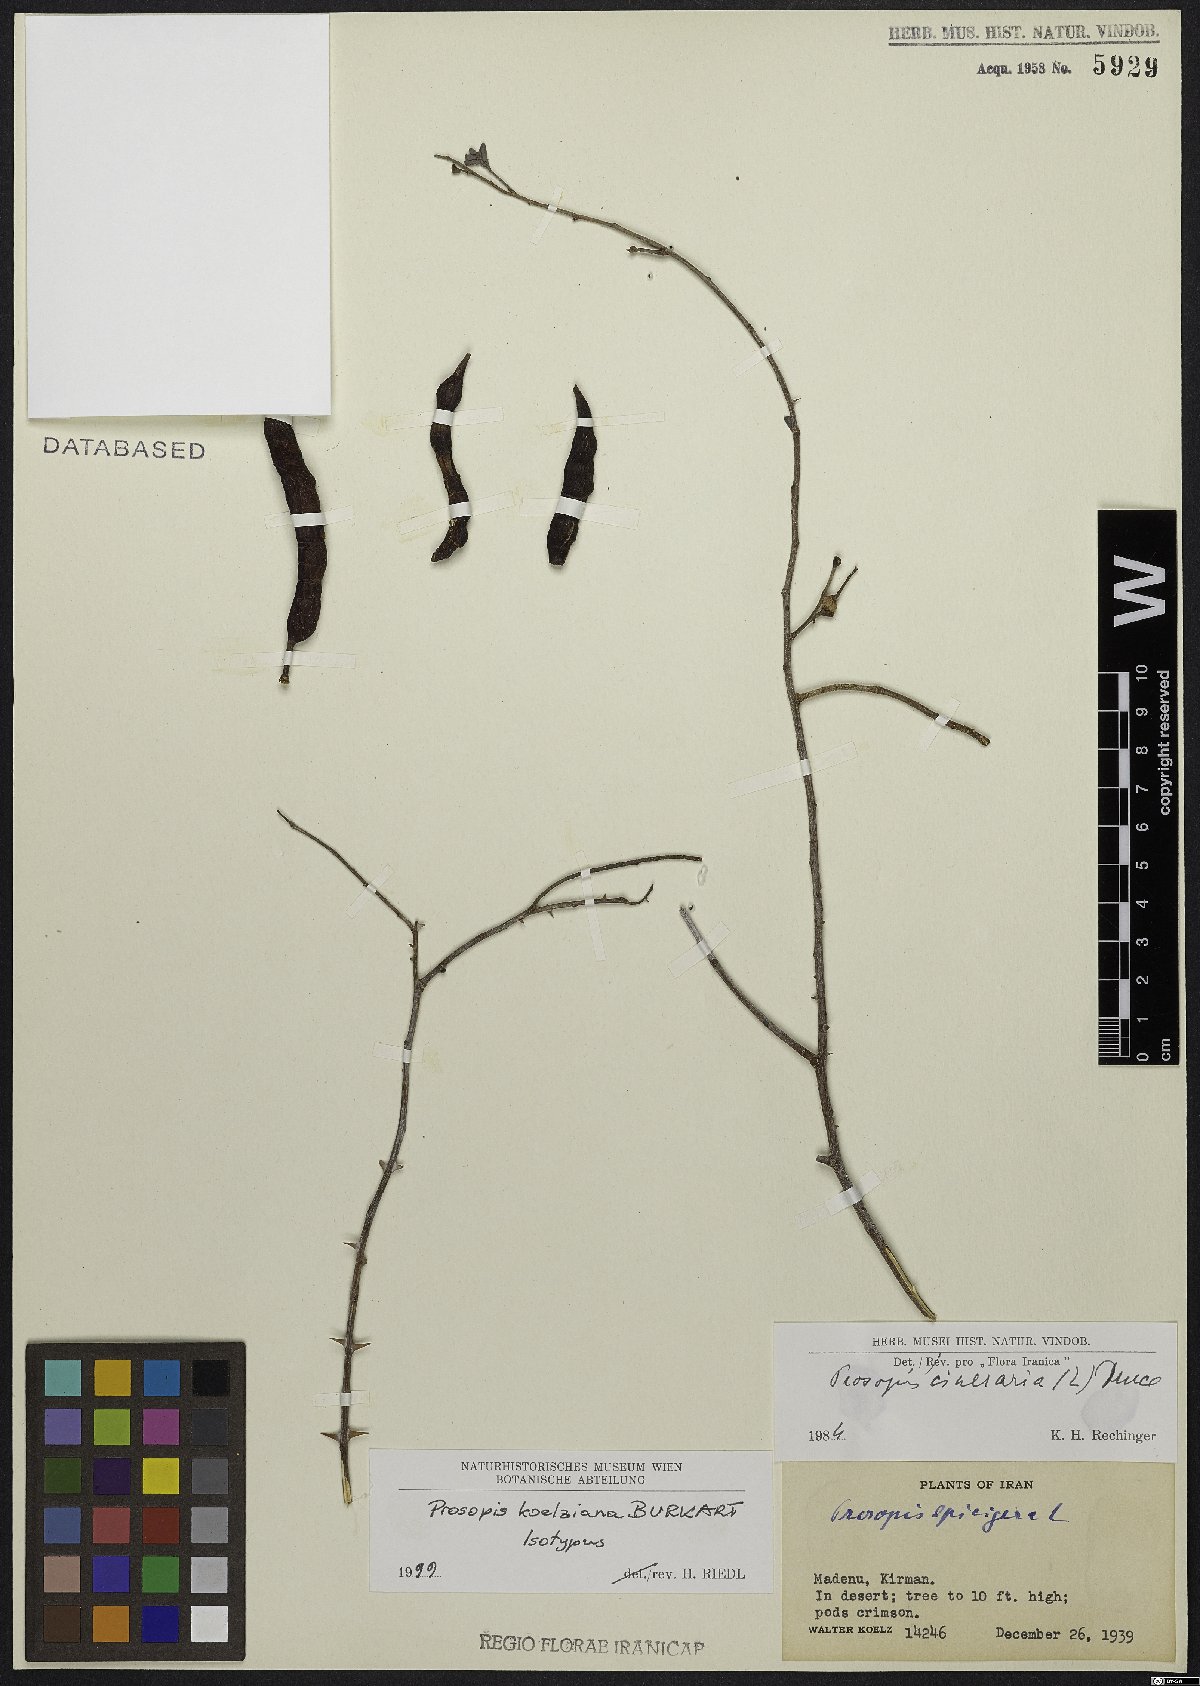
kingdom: Plantae
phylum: Tracheophyta
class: Magnoliopsida
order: Fabales
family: Fabaceae
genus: Prosopis
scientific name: Prosopis koelziana
